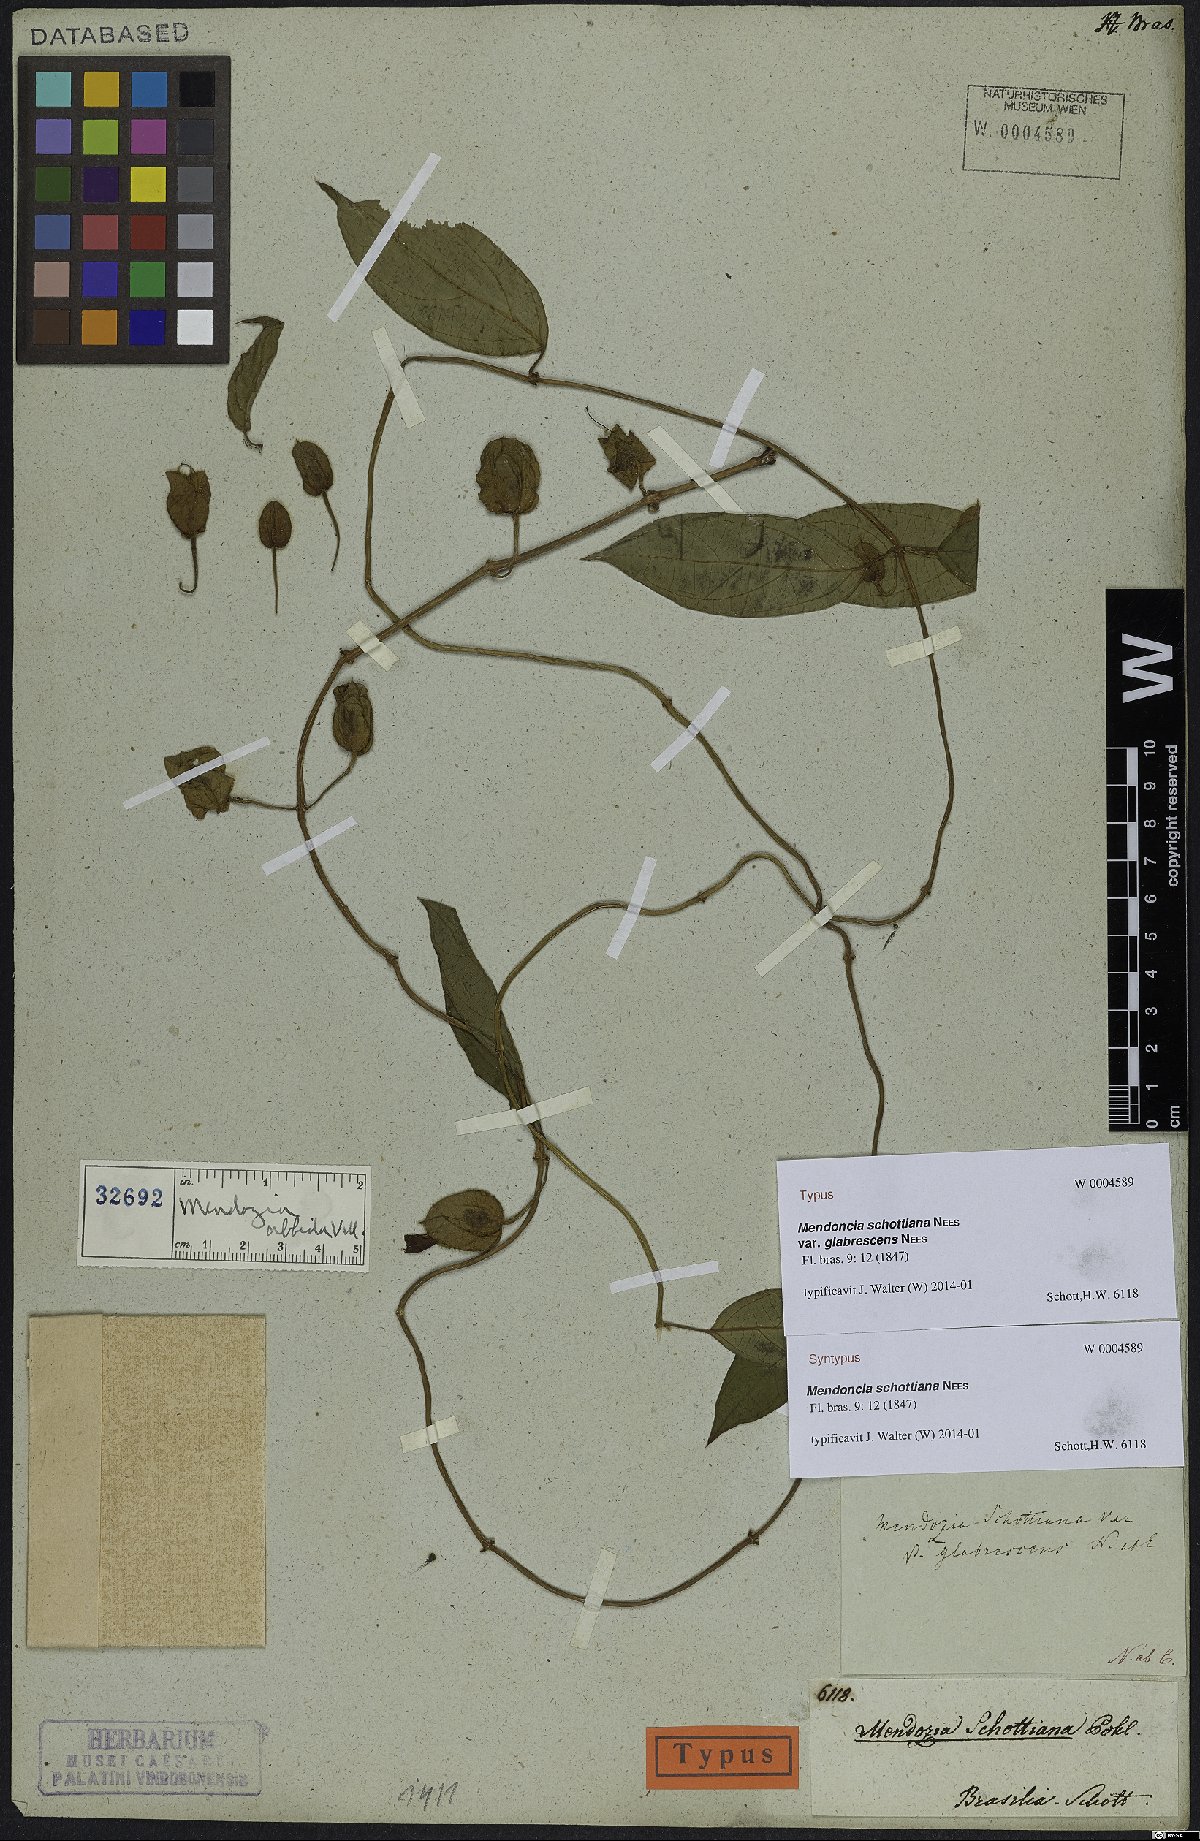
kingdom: Plantae
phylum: Tracheophyta
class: Magnoliopsida
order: Lamiales
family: Acanthaceae
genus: Mendoncia
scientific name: Mendoncia schottiana
